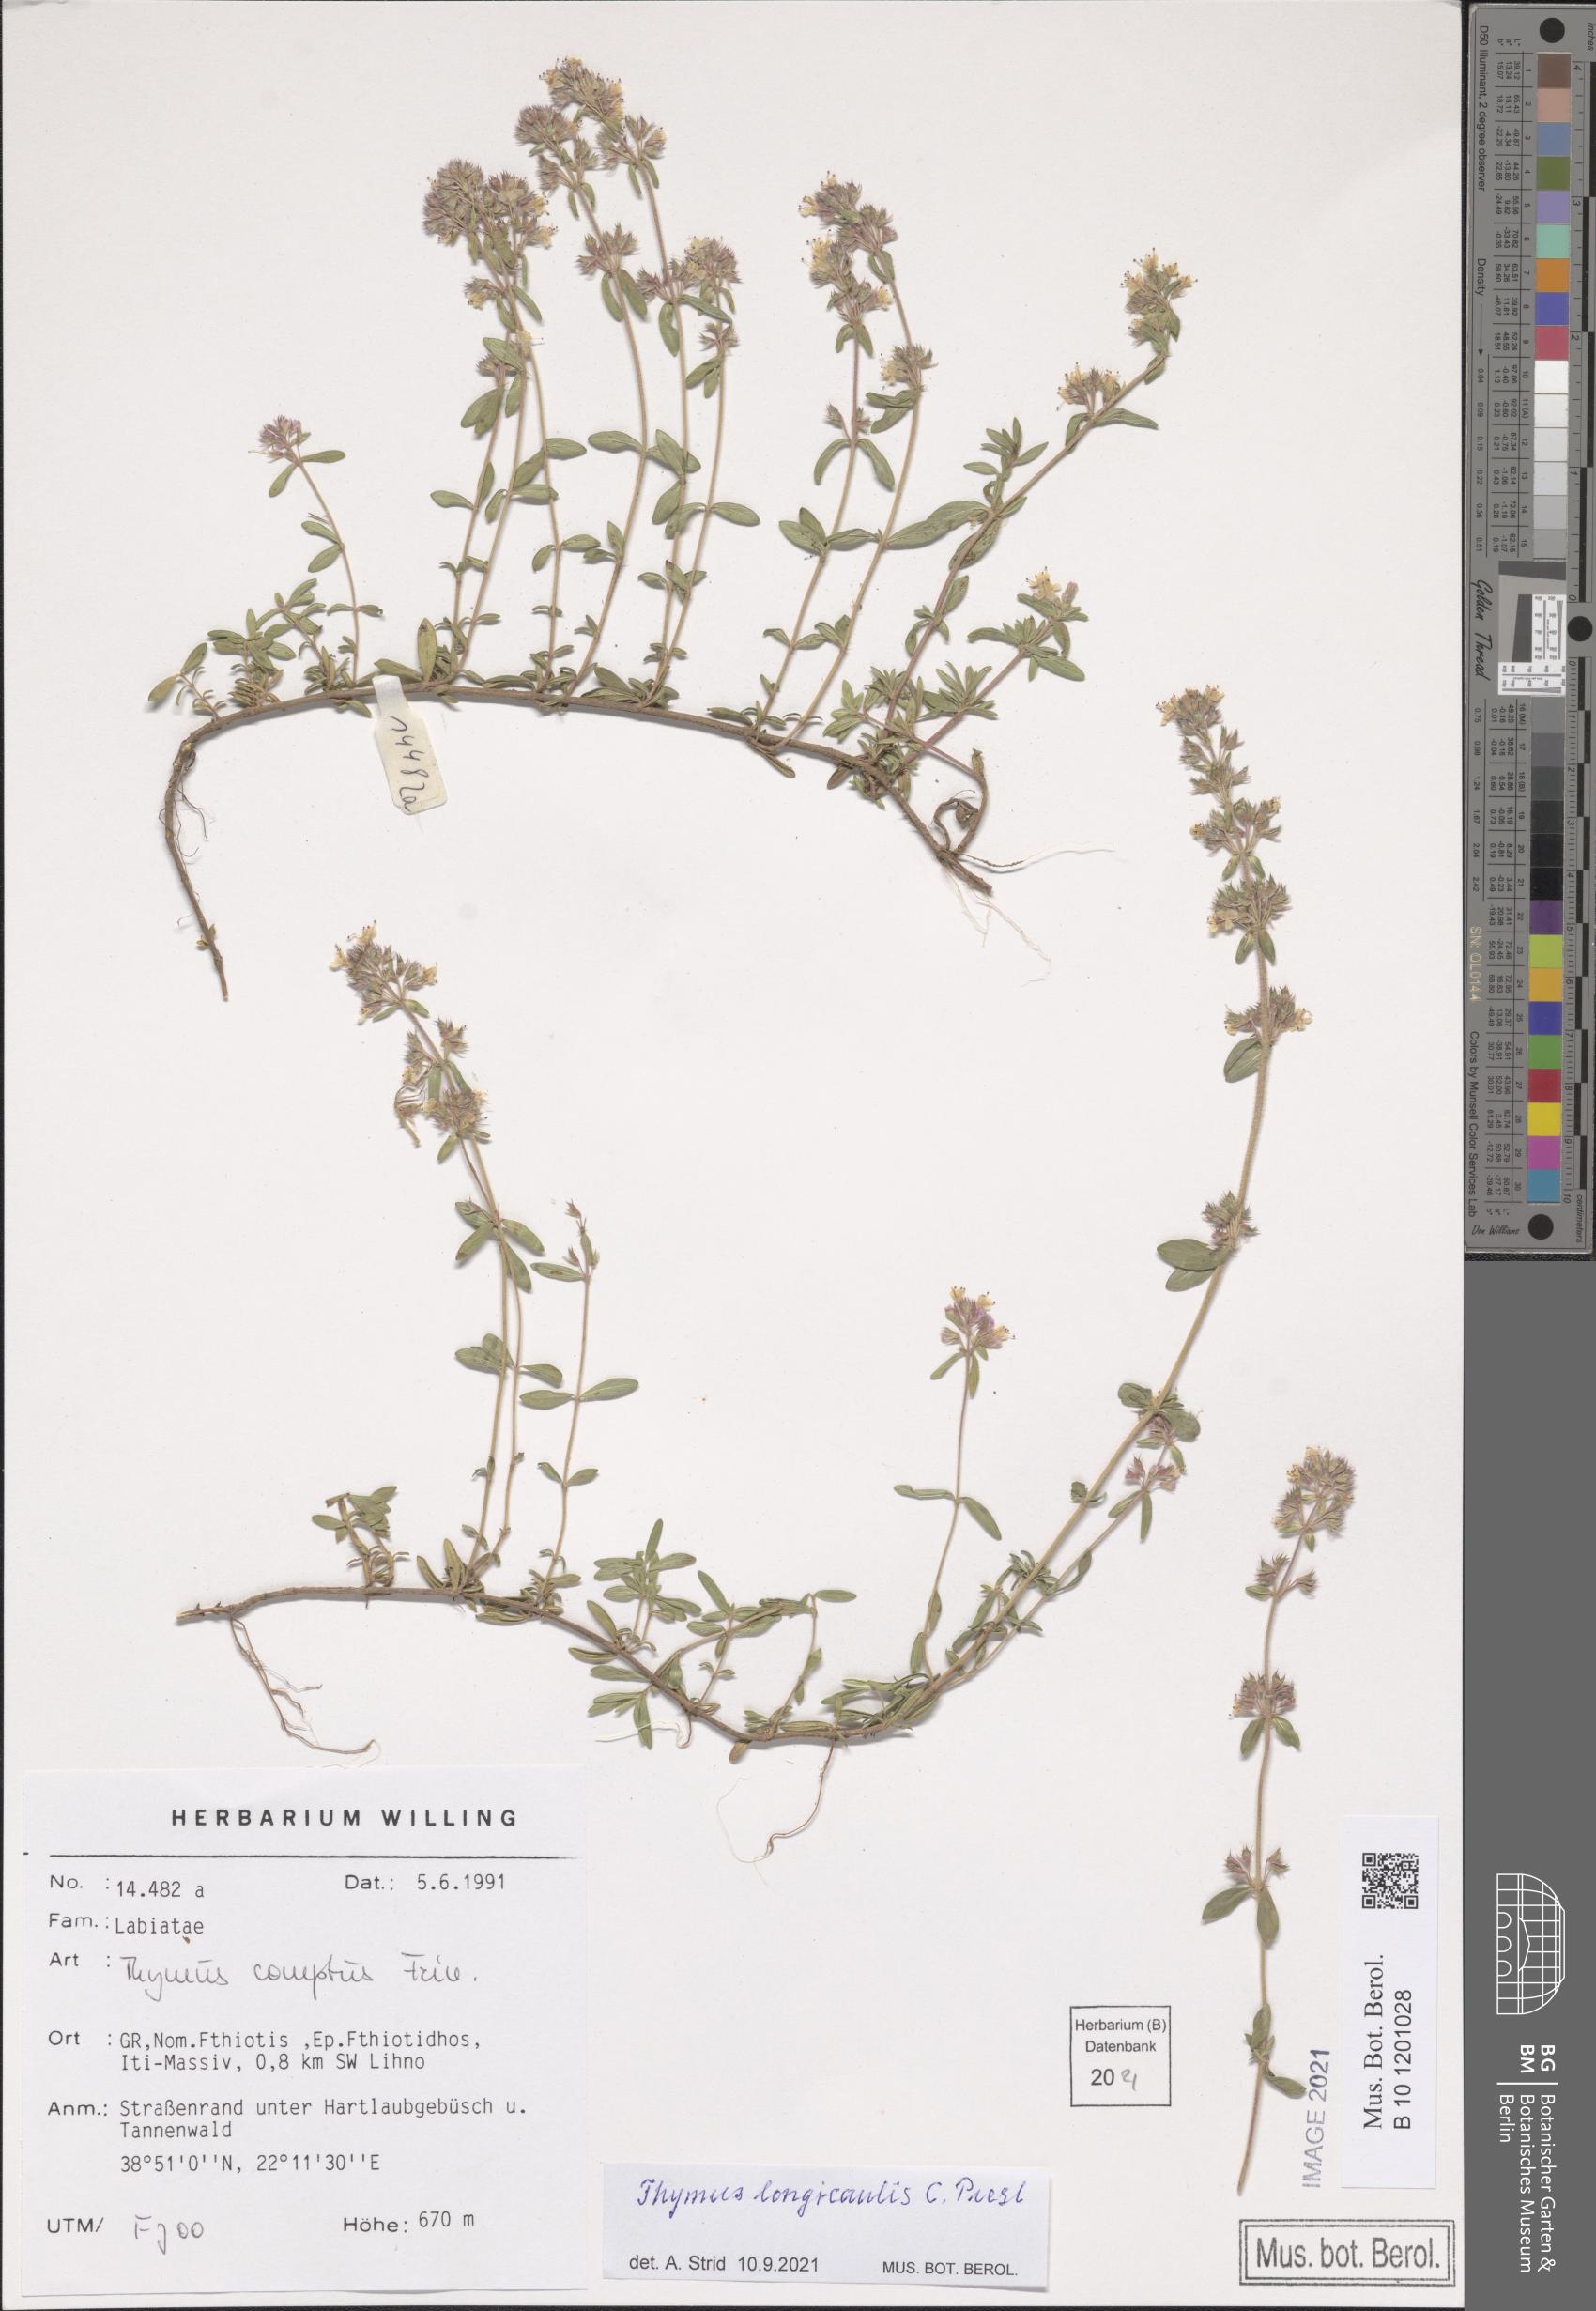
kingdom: Plantae
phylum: Tracheophyta
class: Magnoliopsida
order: Lamiales
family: Lamiaceae
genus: Thymus
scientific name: Thymus longicaulis
